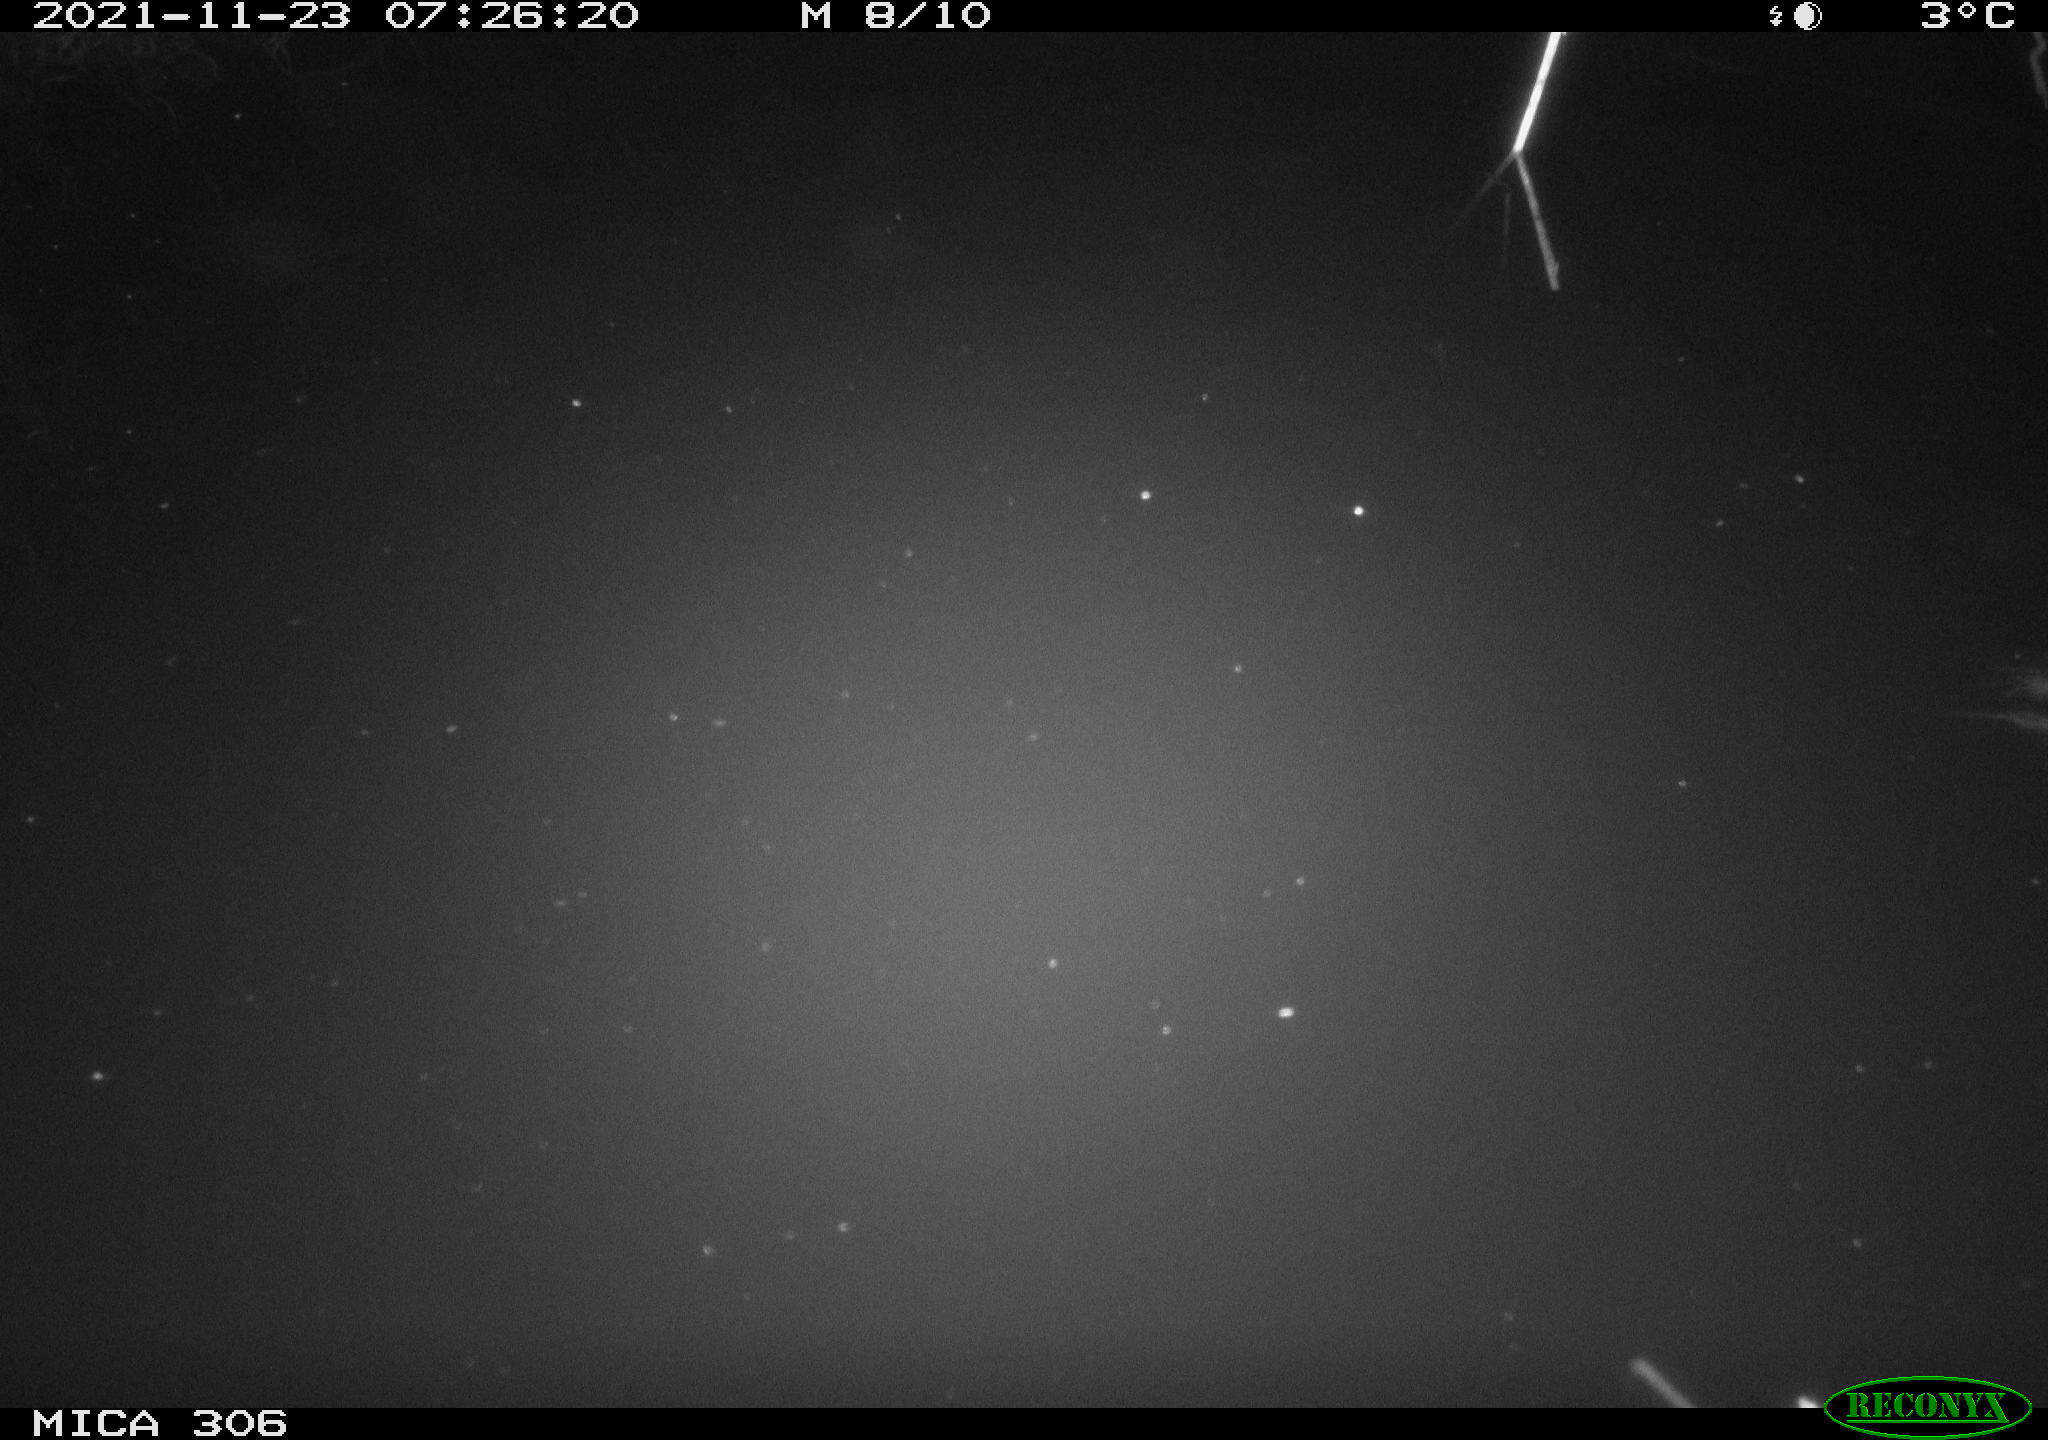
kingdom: Animalia
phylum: Chordata
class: Mammalia
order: Rodentia
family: Muridae
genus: Rattus
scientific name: Rattus norvegicus
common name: Brown rat
